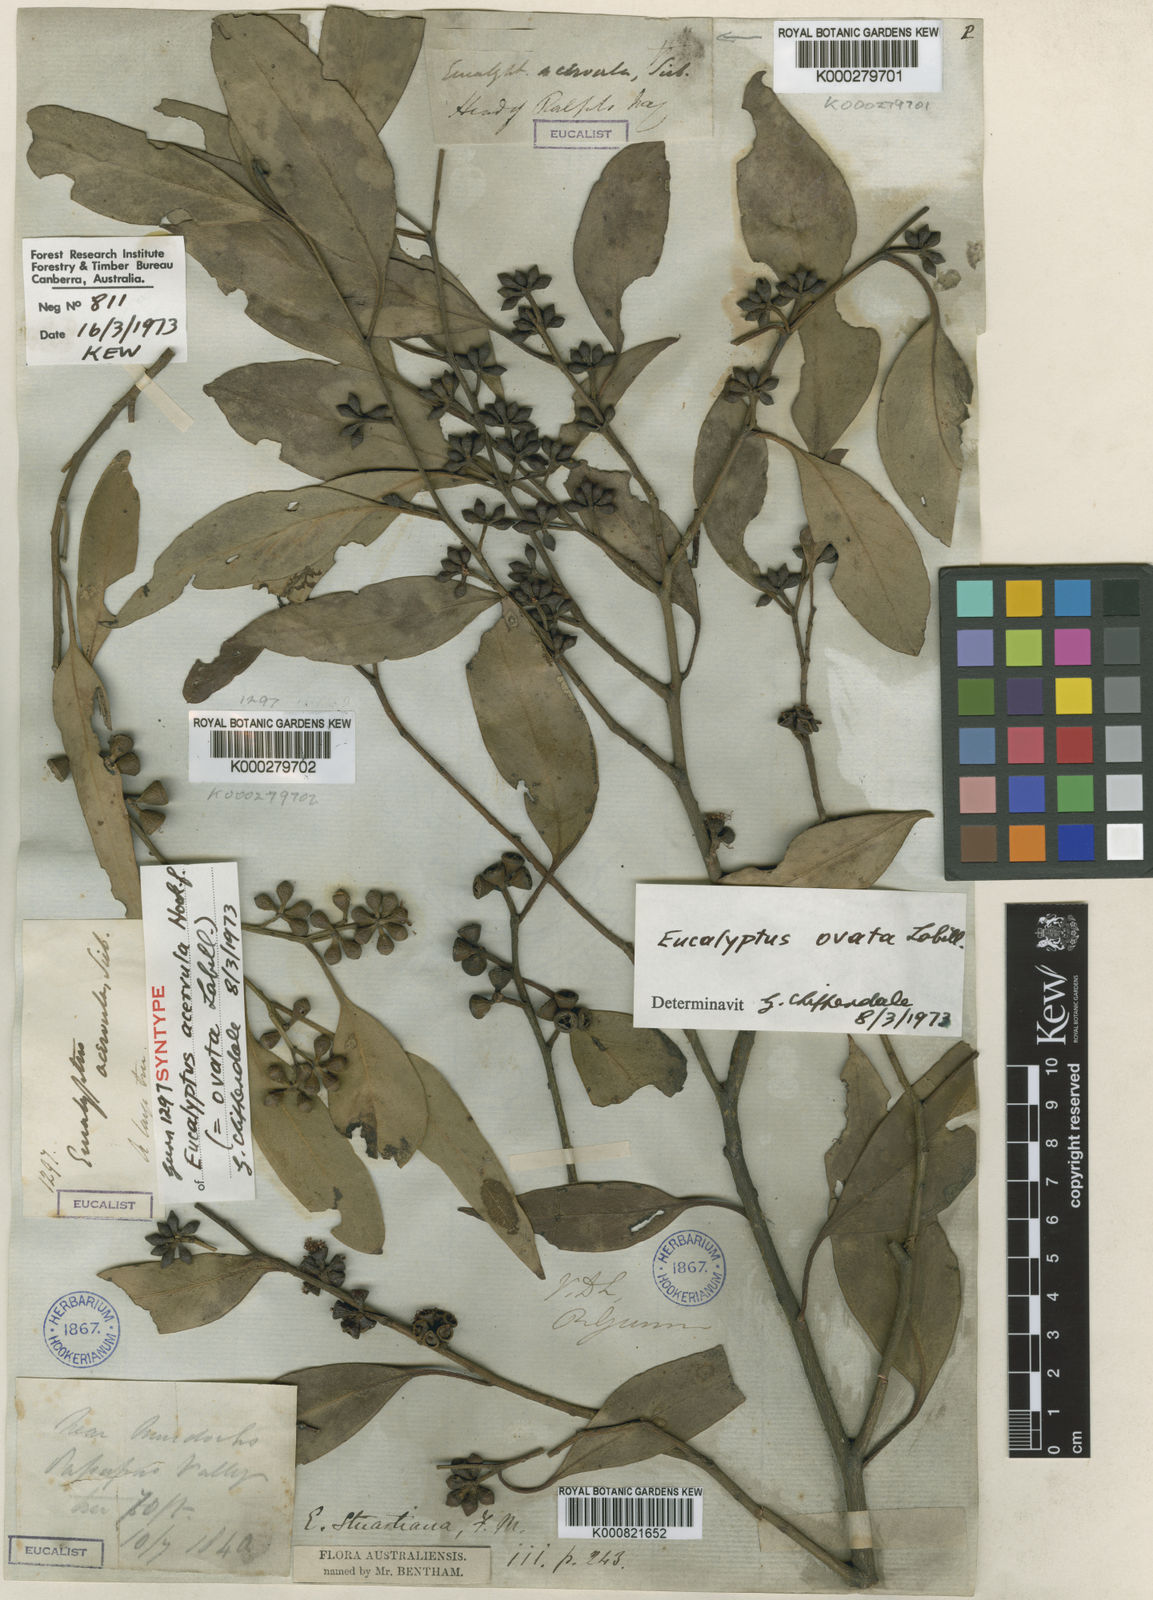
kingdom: Plantae
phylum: Tracheophyta
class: Magnoliopsida
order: Myrtales
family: Myrtaceae
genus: Eucalyptus
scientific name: Eucalyptus ovata
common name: Black-gum
